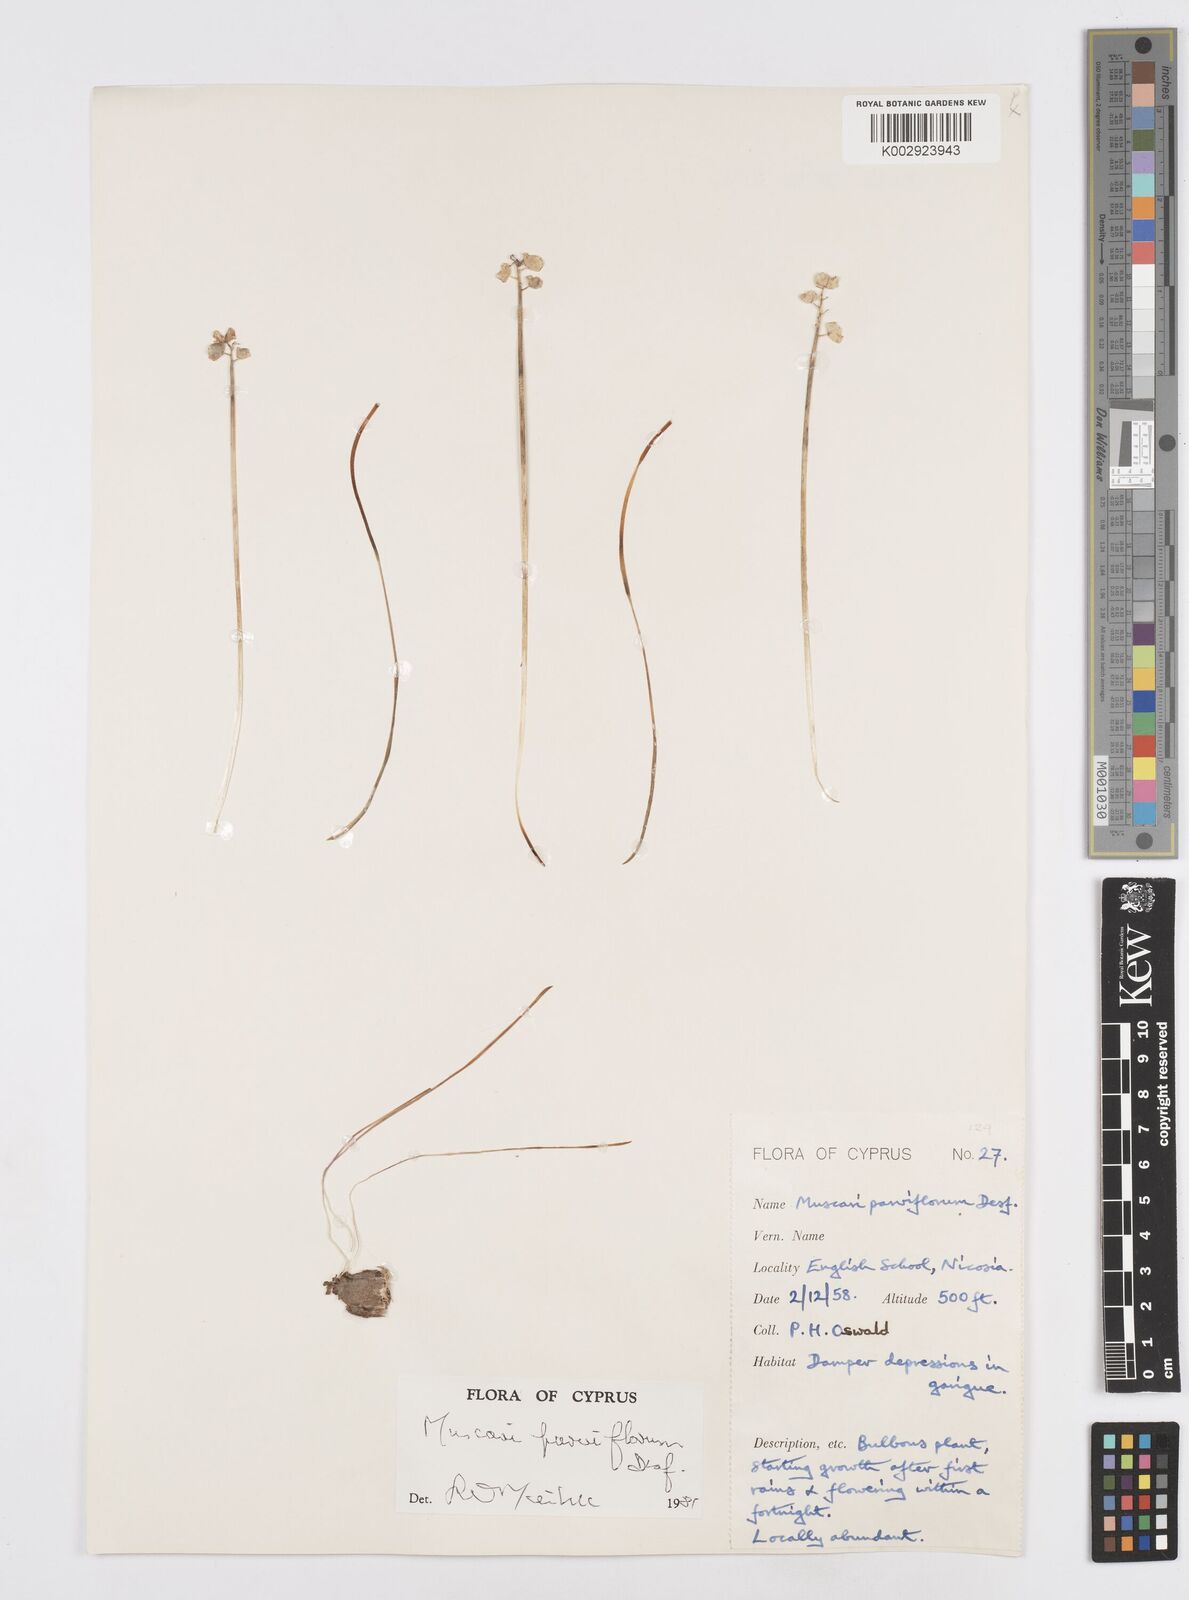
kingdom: Plantae
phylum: Tracheophyta
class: Liliopsida
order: Asparagales
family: Asparagaceae
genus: Muscari
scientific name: Muscari parviflorum
